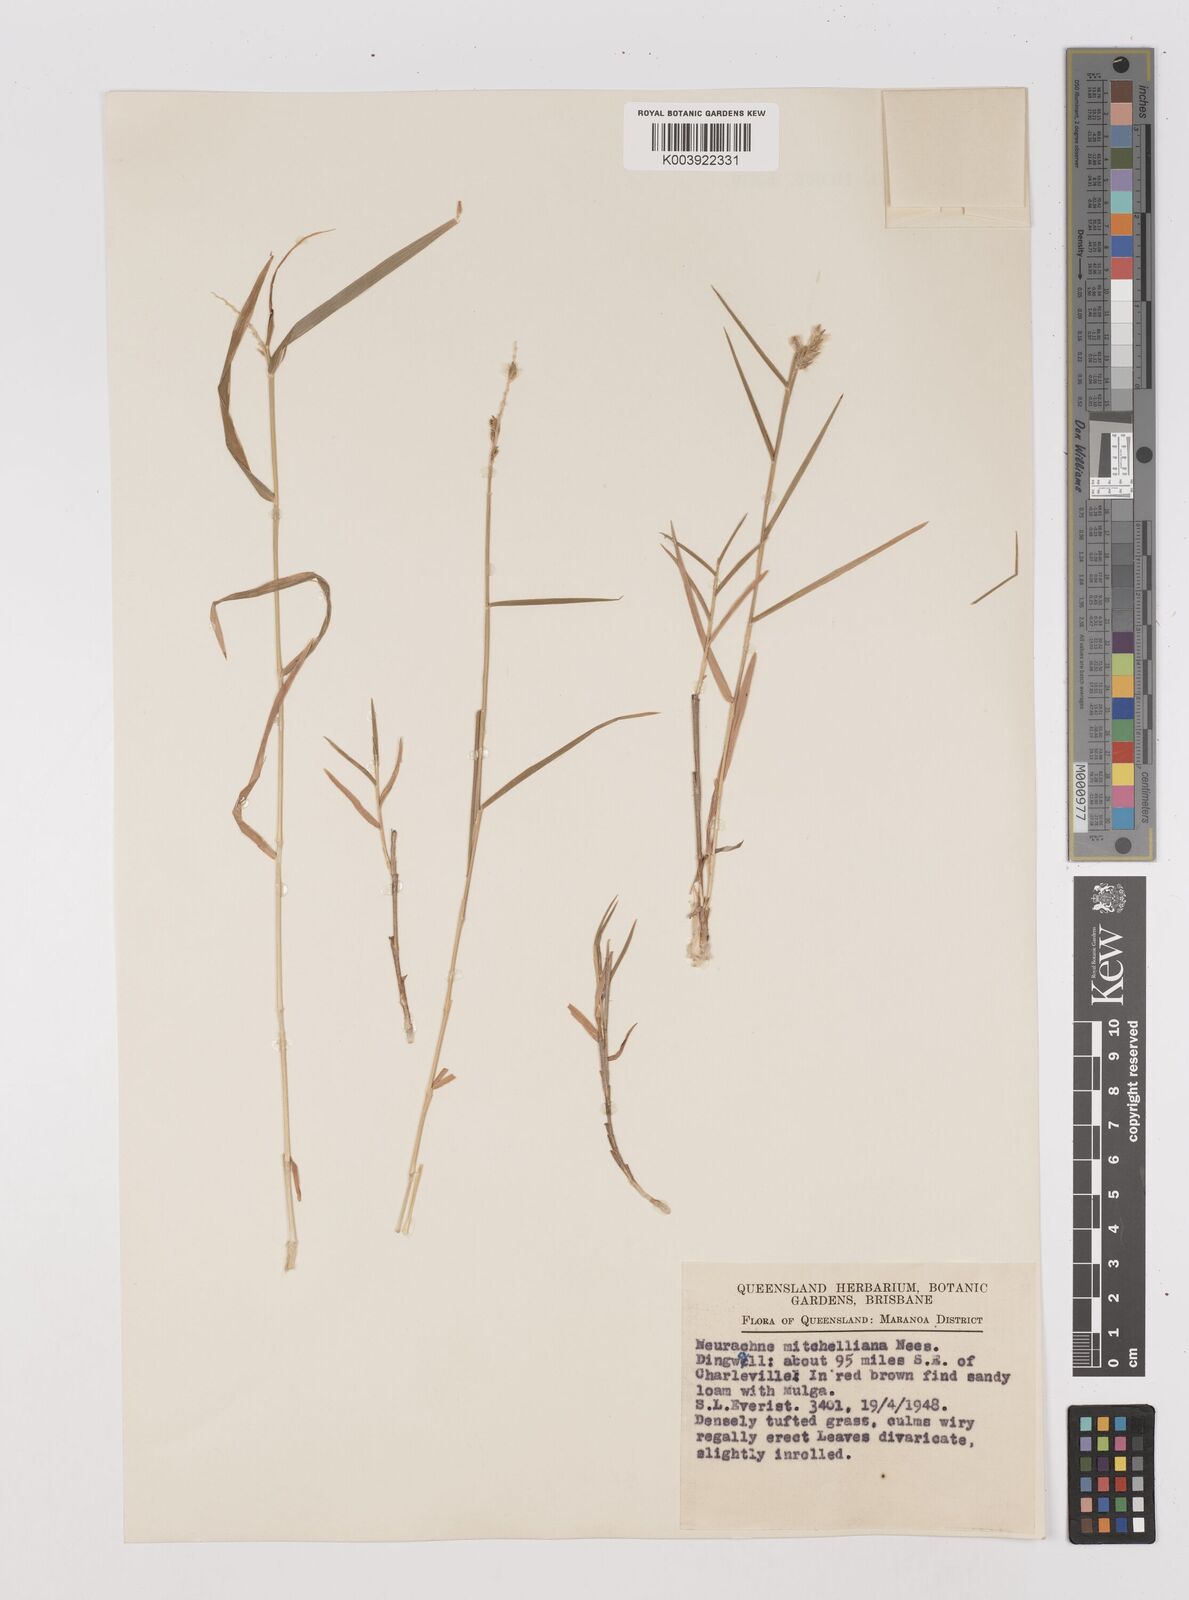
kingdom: Plantae
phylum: Tracheophyta
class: Liliopsida
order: Poales
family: Poaceae
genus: Thyridolepis
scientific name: Thyridolepis mitchelliana
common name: Rock tassel grass
